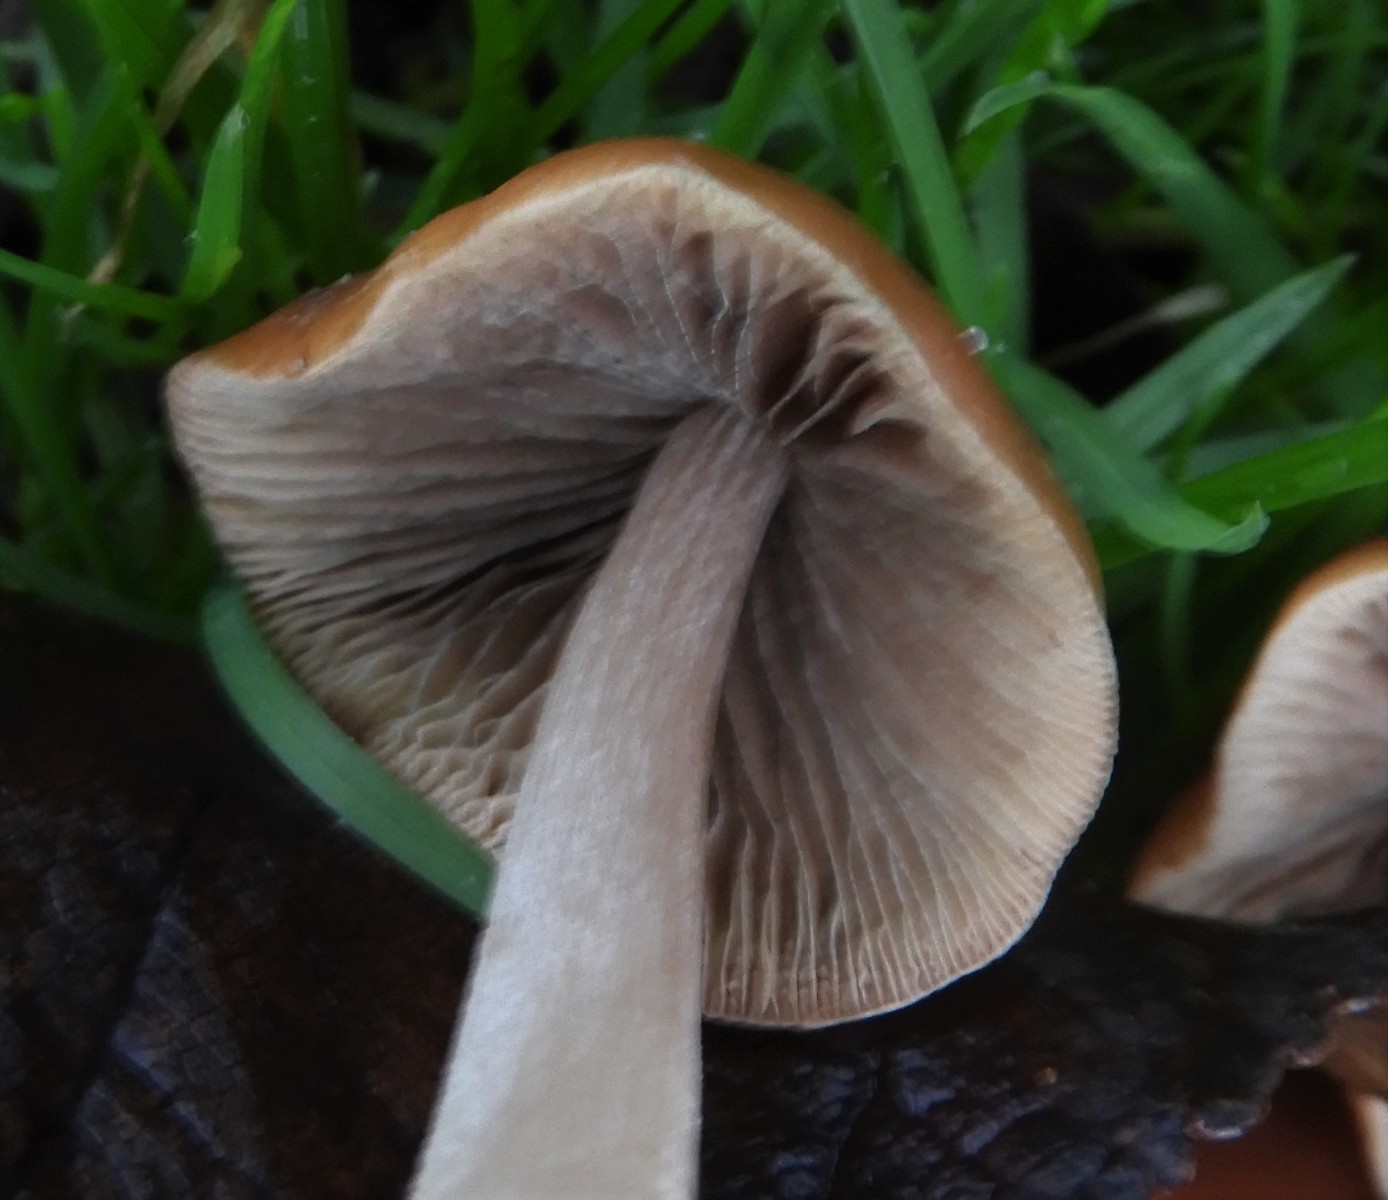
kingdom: Fungi
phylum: Basidiomycota
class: Agaricomycetes
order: Agaricales
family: Psathyrellaceae
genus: Britzelmayria
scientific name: Britzelmayria multipedata
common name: knippe-mørkhat
